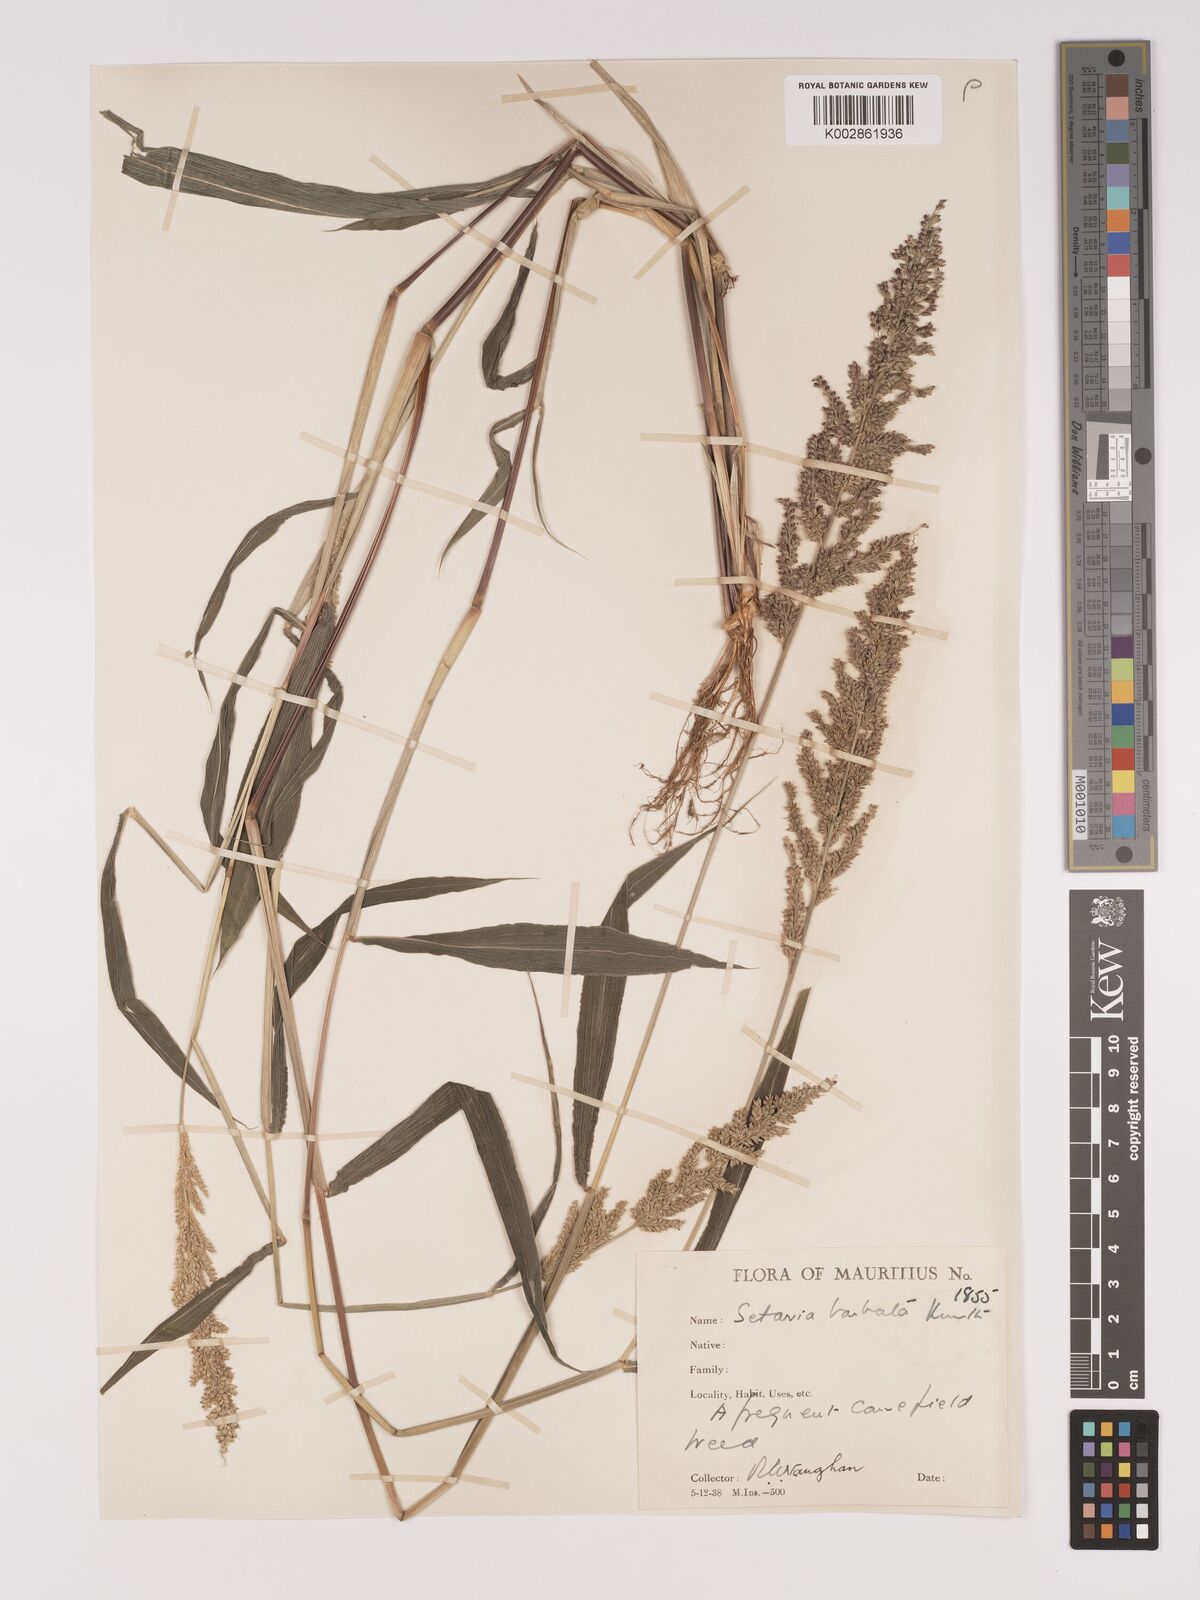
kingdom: Plantae
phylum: Tracheophyta
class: Liliopsida
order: Poales
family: Poaceae
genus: Setaria
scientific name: Setaria barbata
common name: East indian bristlegrass
